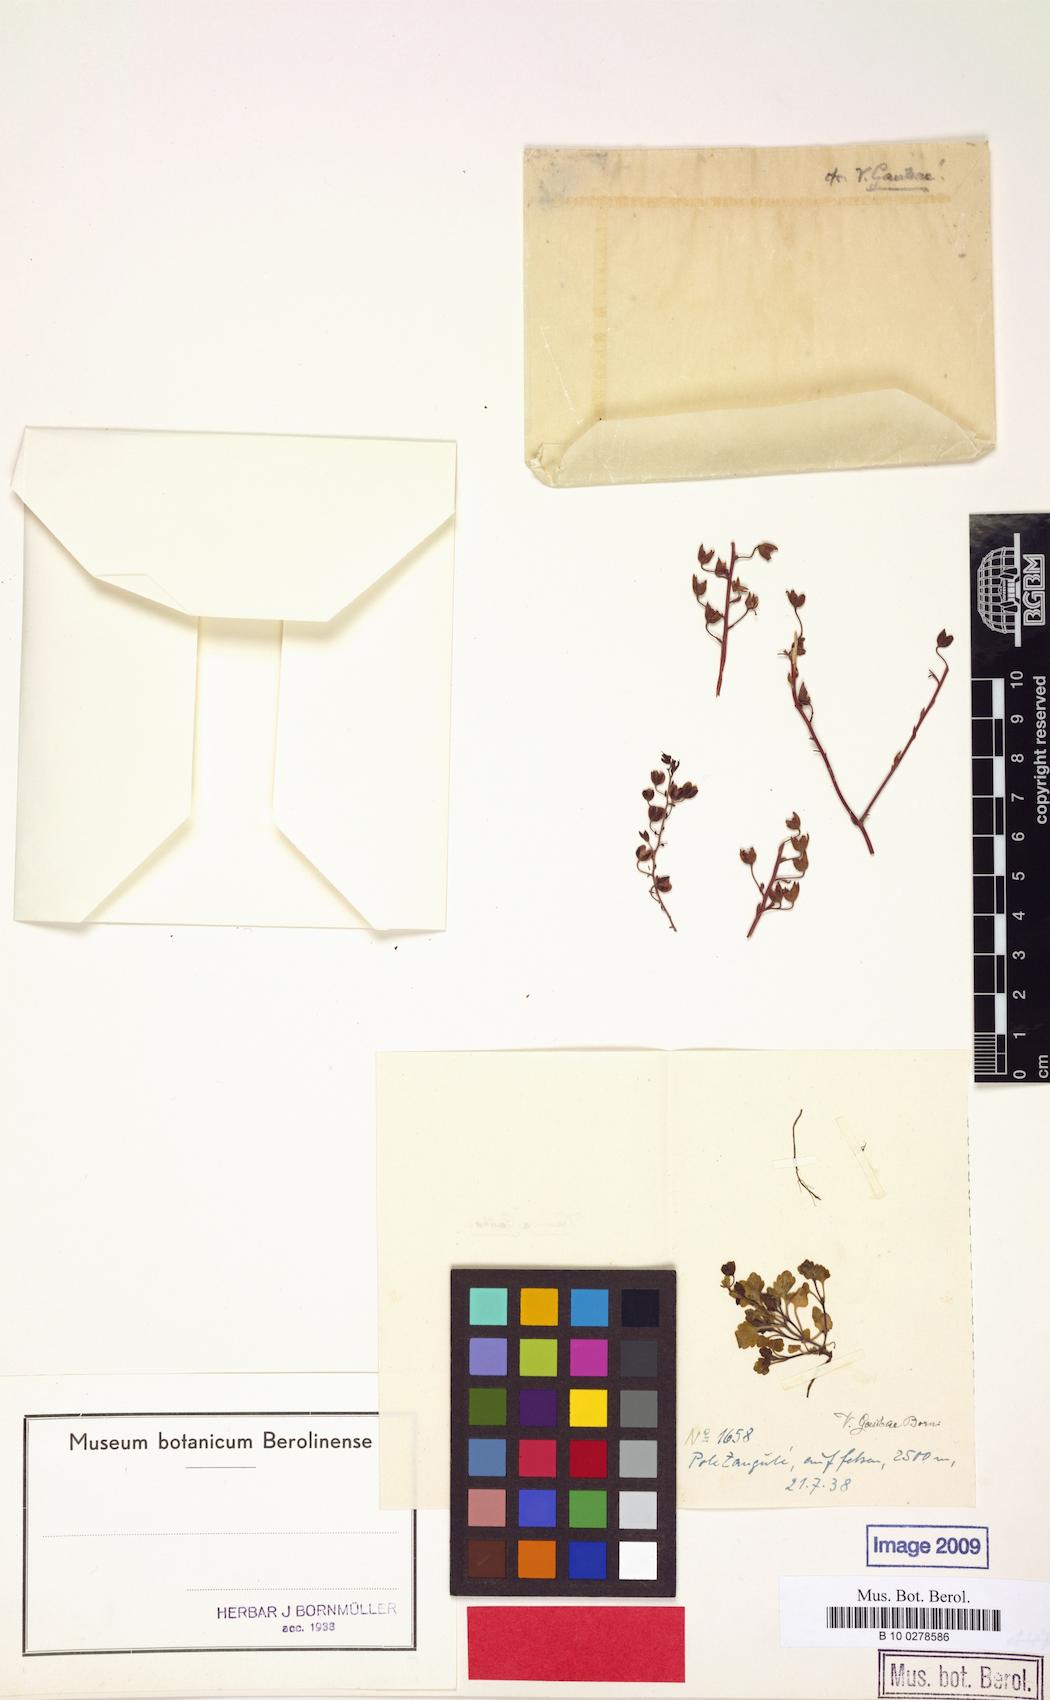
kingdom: Plantae
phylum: Tracheophyta
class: Magnoliopsida
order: Lamiales
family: Plantaginaceae
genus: Veronica
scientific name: Veronica gaubae
